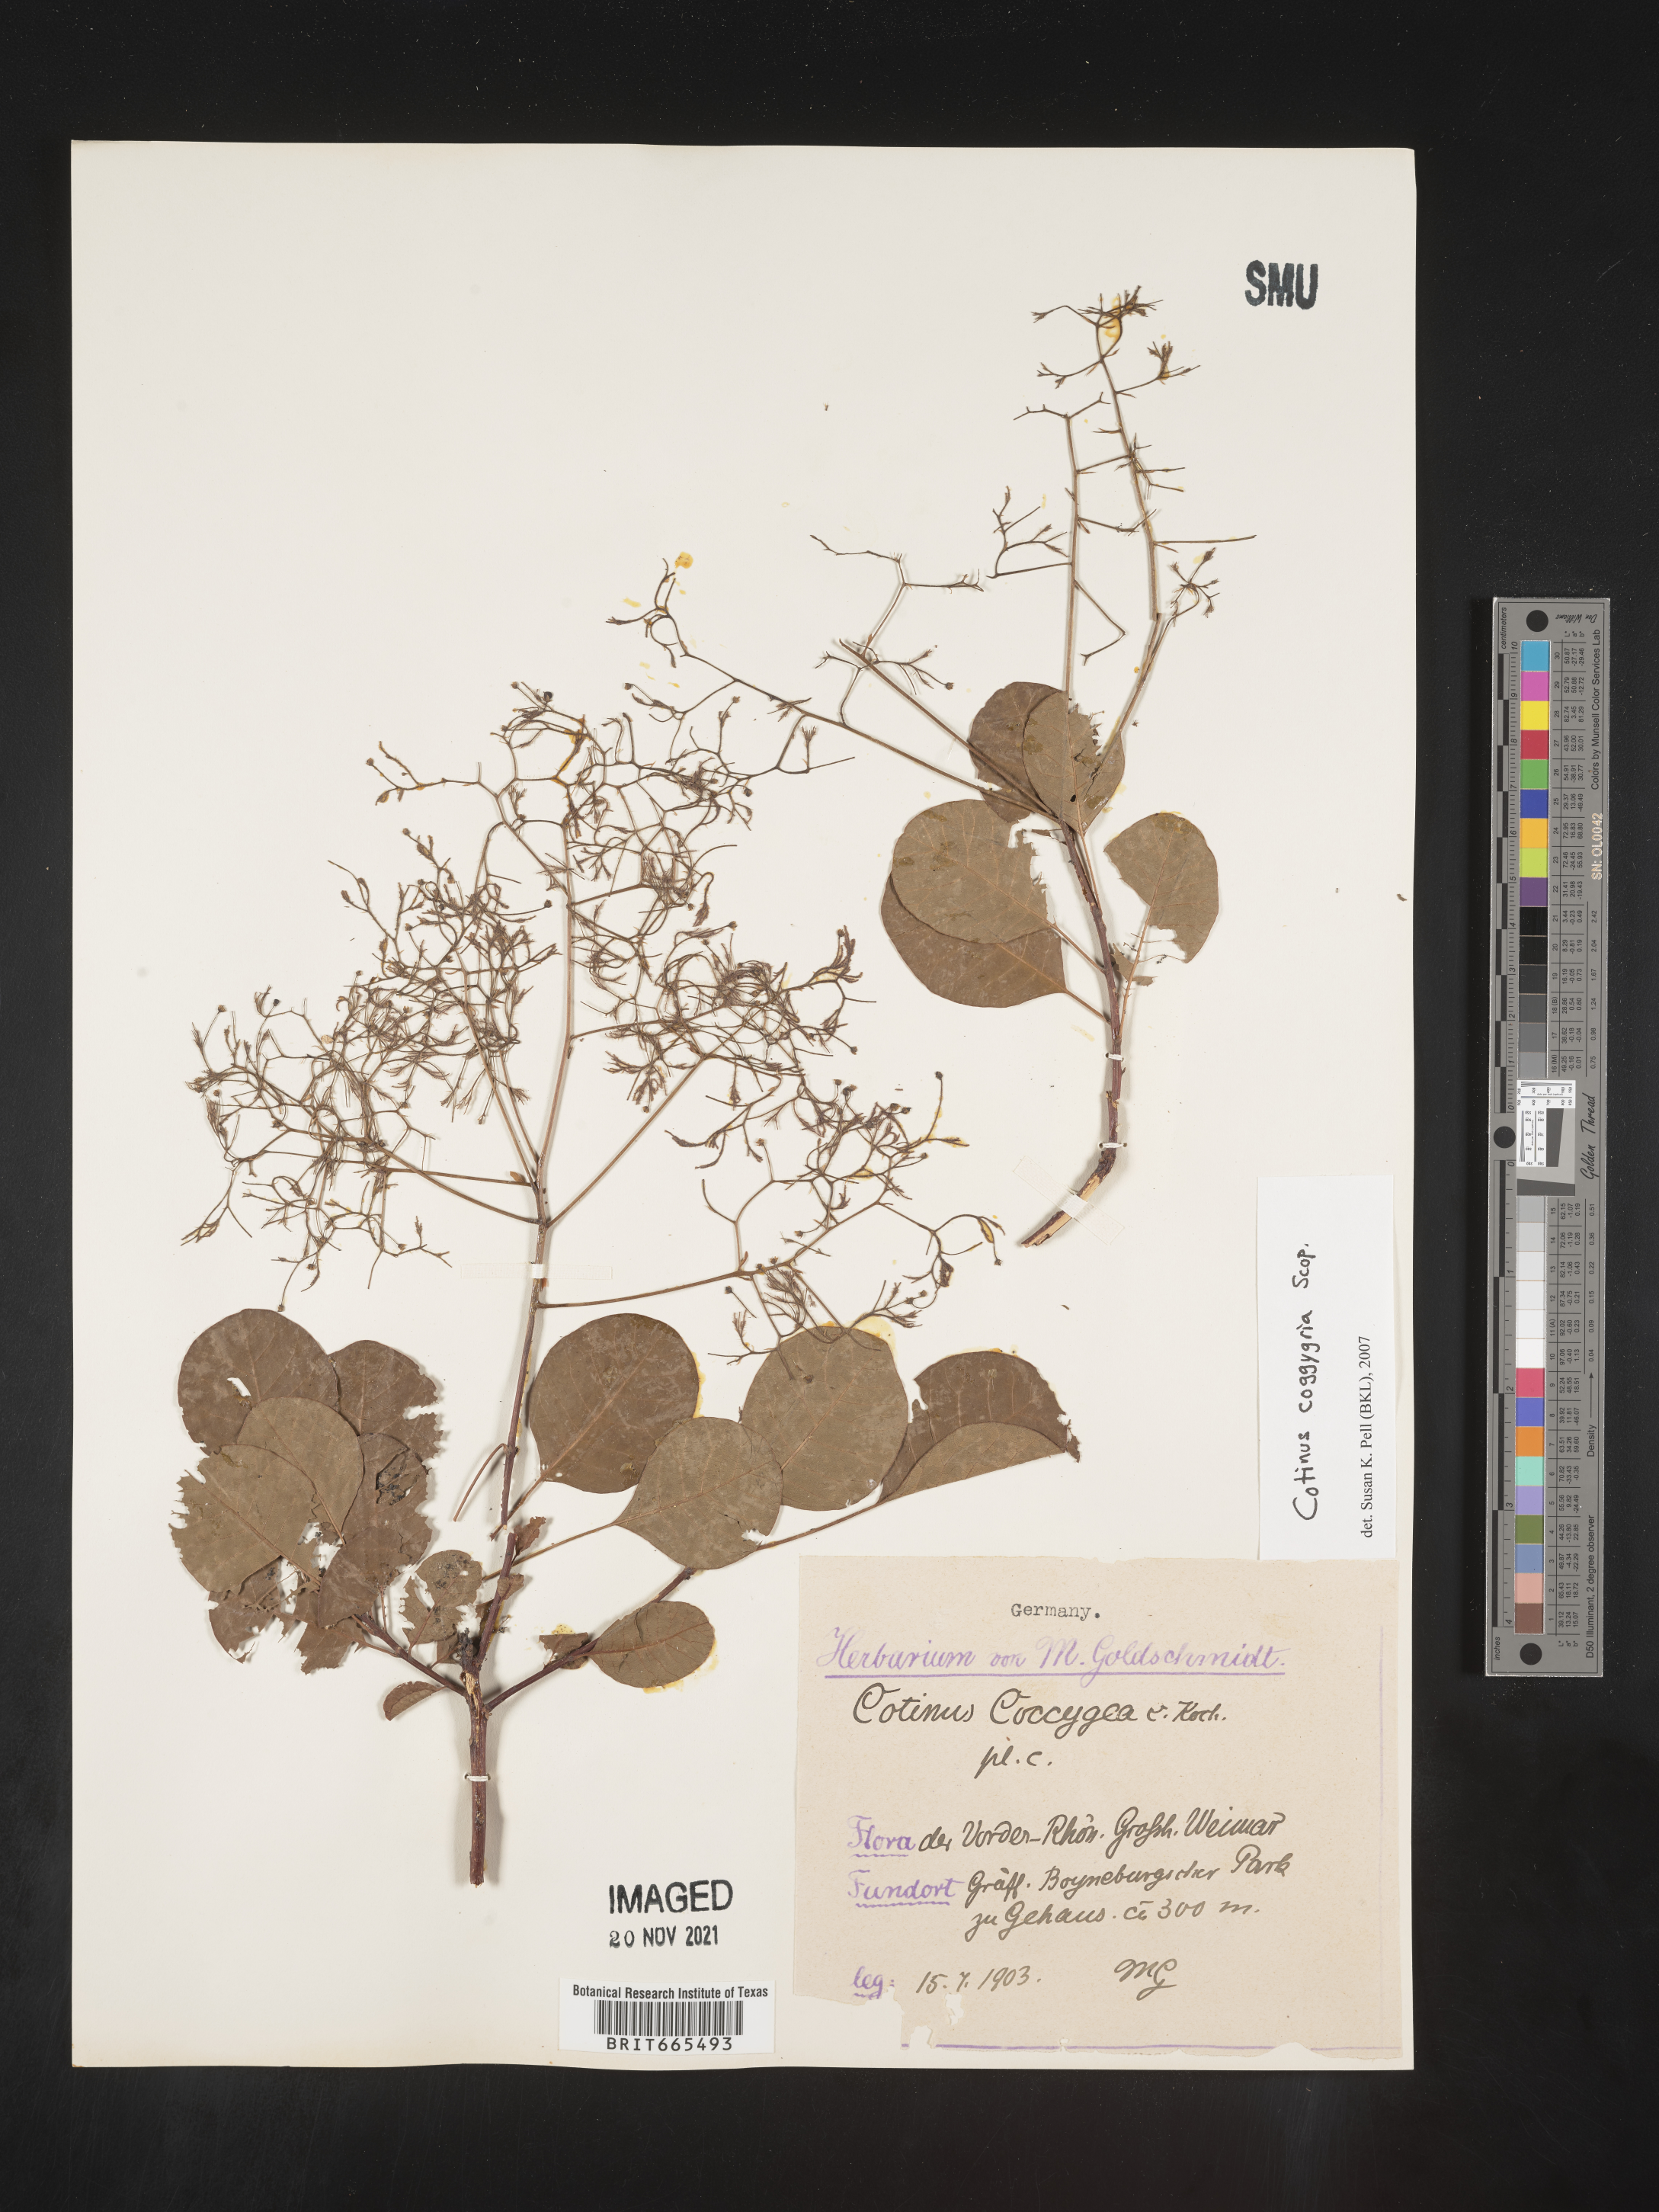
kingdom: Plantae
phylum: Tracheophyta
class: Magnoliopsida
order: Sapindales
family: Anacardiaceae
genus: Cotinus
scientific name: Cotinus
